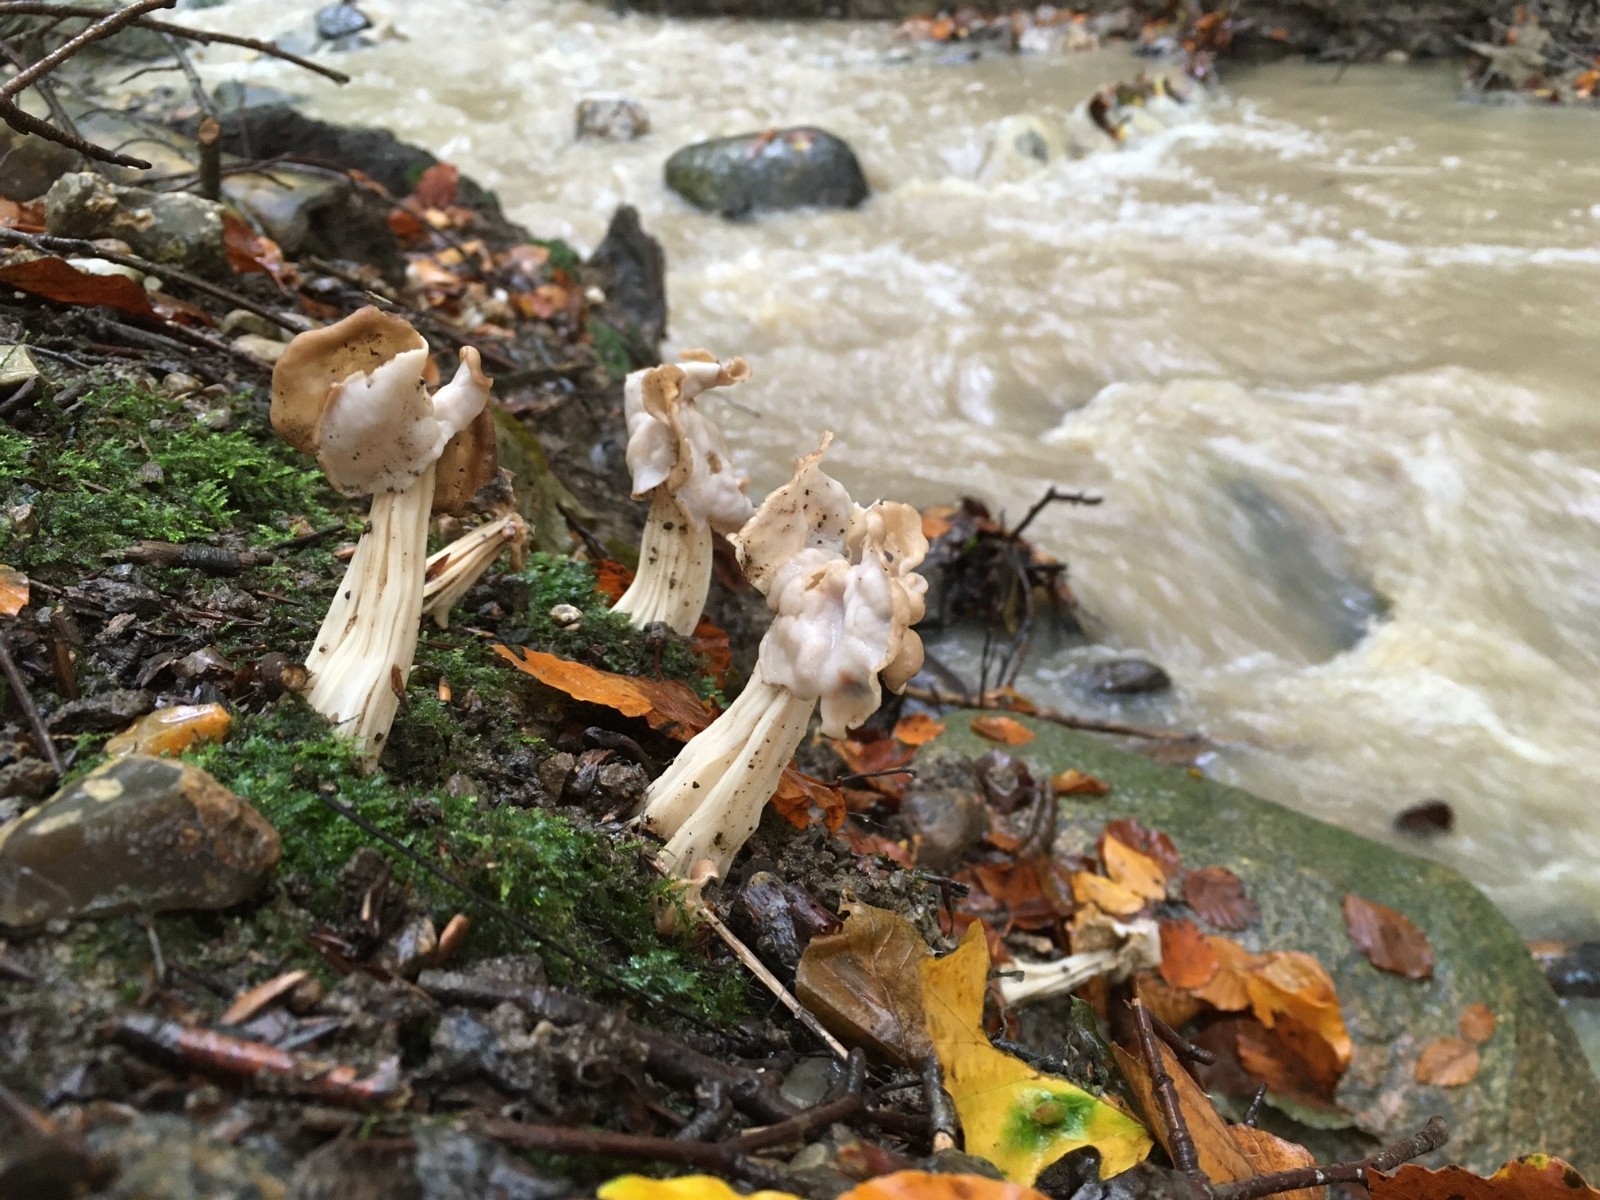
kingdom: Fungi
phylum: Ascomycota
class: Pezizomycetes
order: Pezizales
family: Helvellaceae
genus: Helvella
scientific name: Helvella crispa
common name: kruset foldhat
